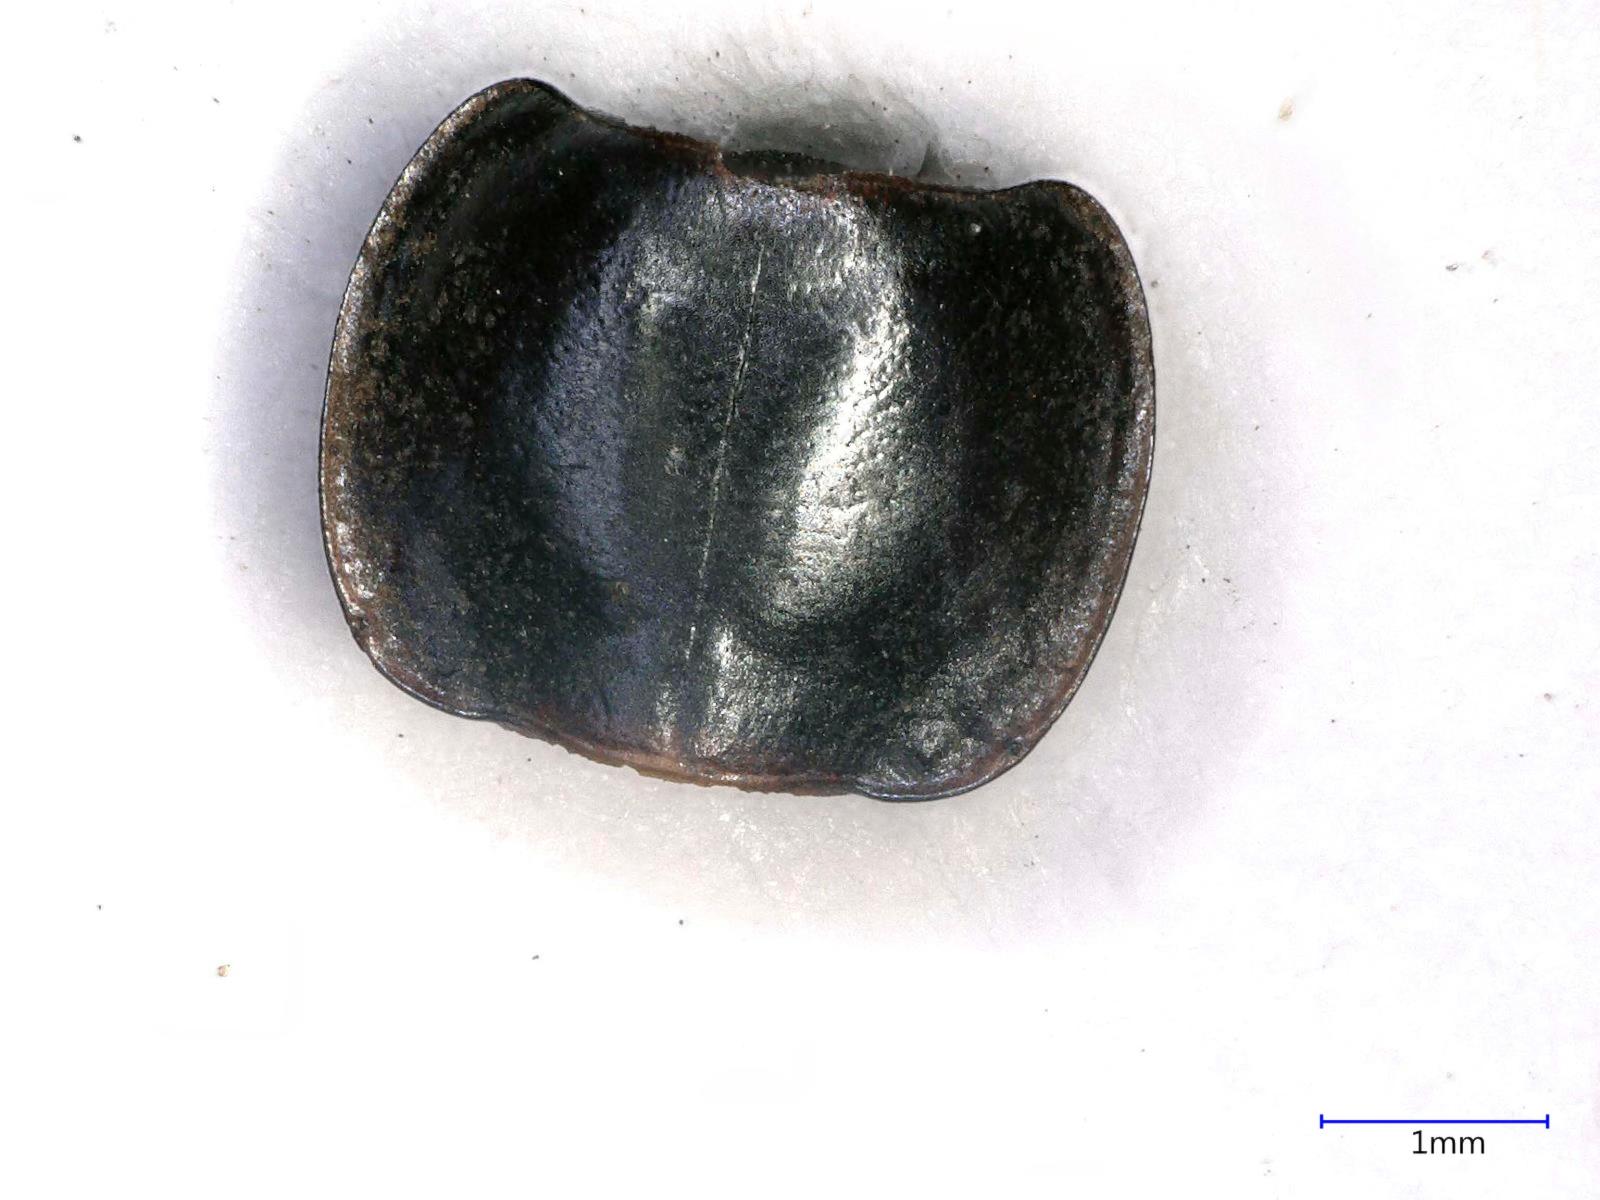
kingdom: Animalia
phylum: Arthropoda
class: Insecta
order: Coleoptera
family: Carabidae
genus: Tanystoma
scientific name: Tanystoma maculicolle
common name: Tule beetle
